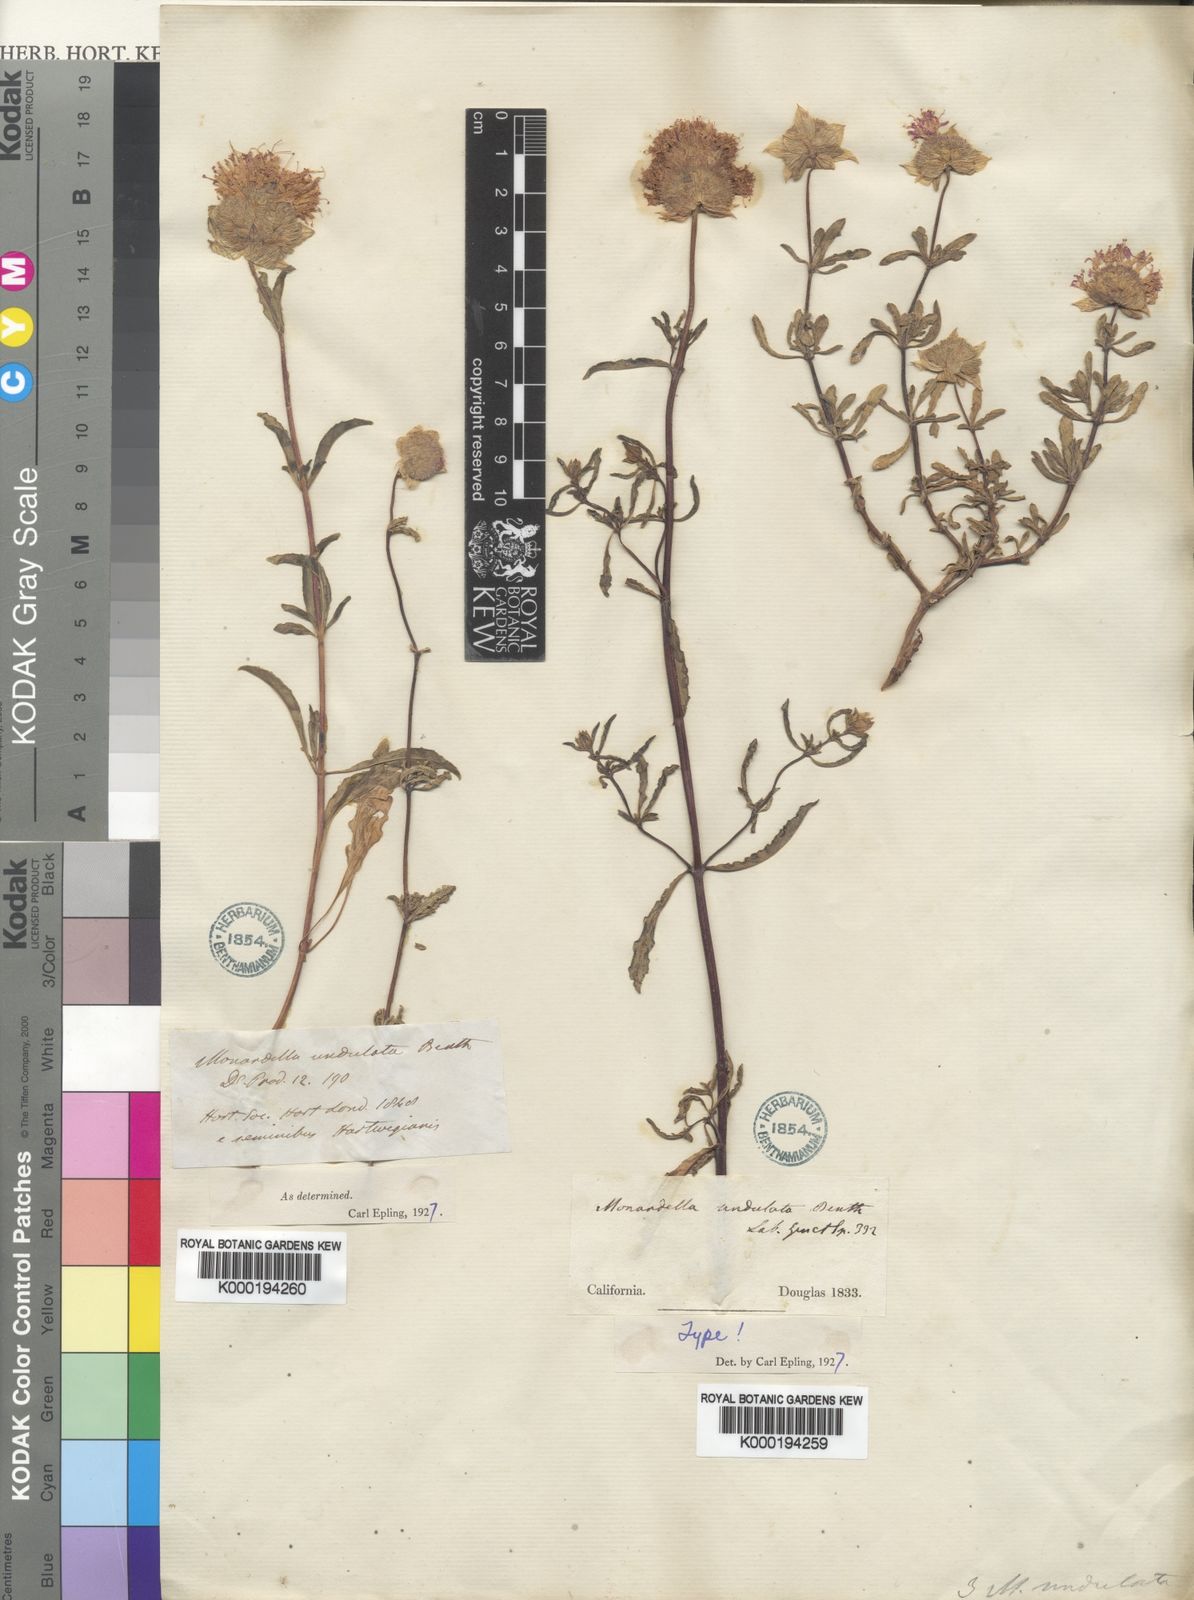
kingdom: Plantae
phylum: Tracheophyta
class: Magnoliopsida
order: Lamiales
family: Lamiaceae
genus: Monardella
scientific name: Monardella undulata
